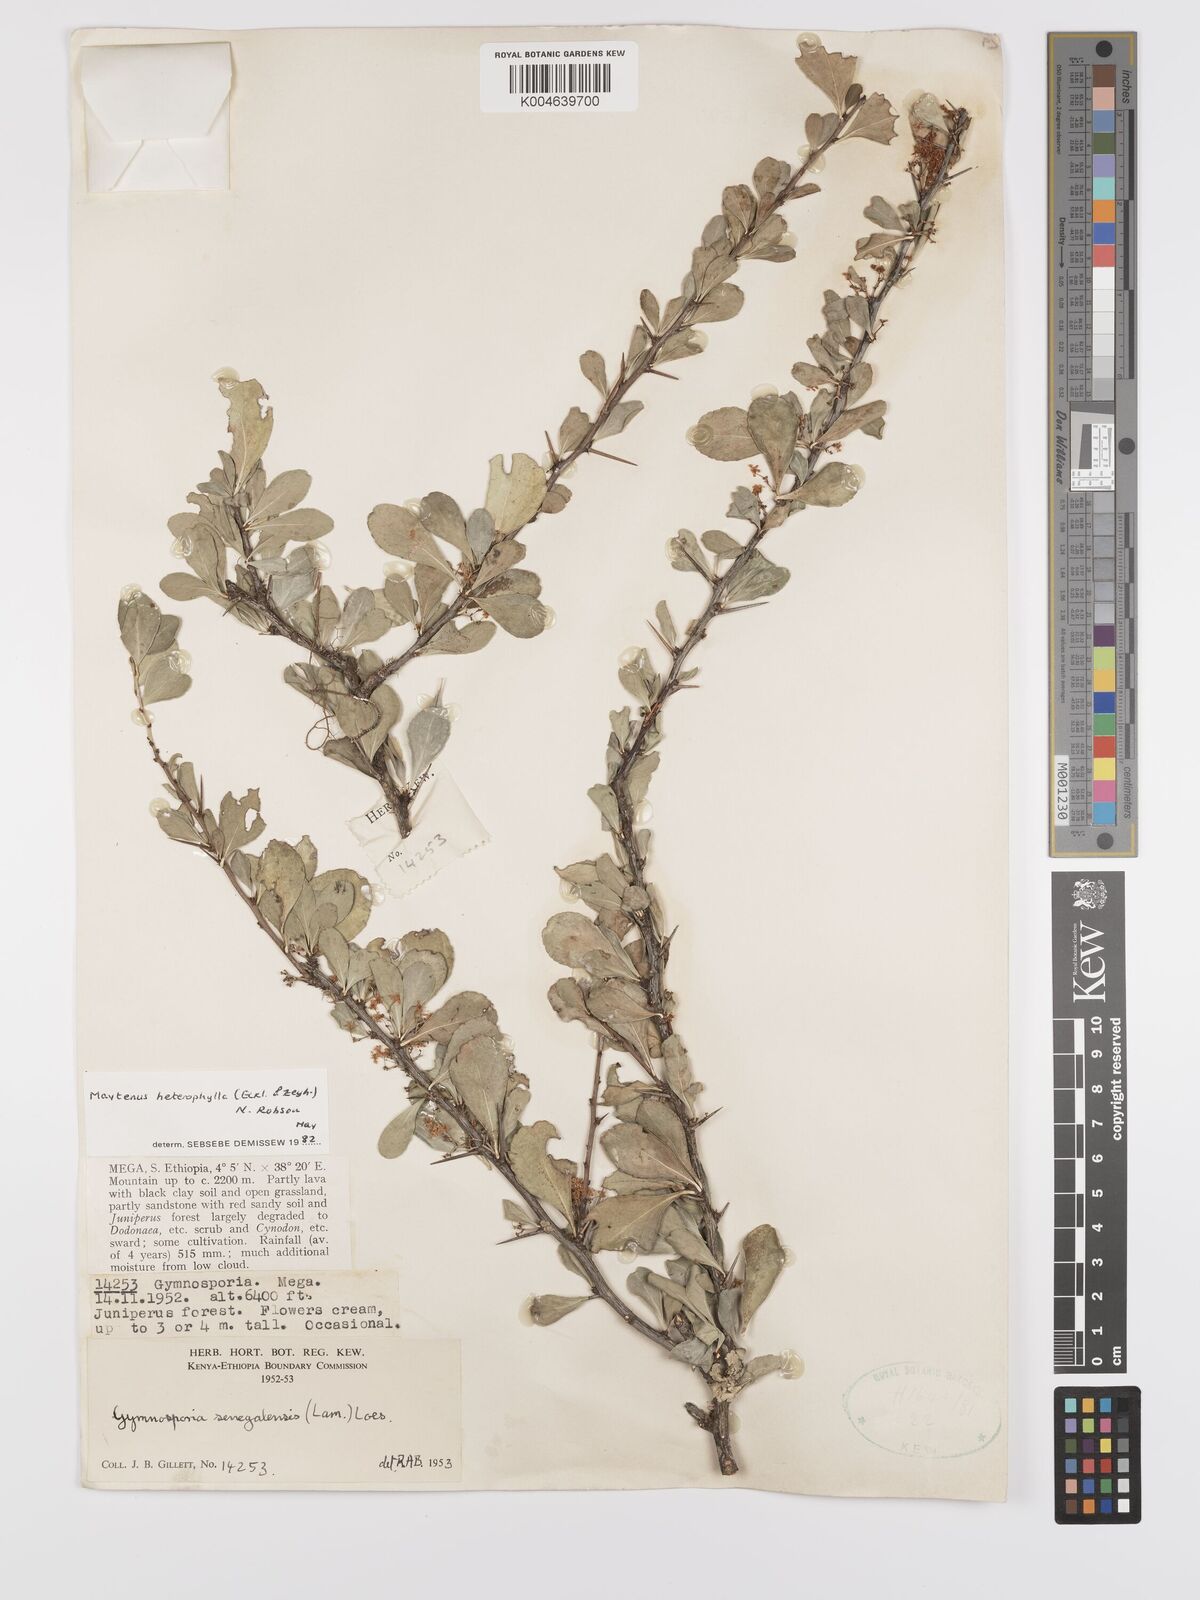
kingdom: Plantae
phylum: Tracheophyta
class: Magnoliopsida
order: Celastrales
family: Celastraceae
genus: Gymnosporia
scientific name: Gymnosporia heterophylla
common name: Angle-stem spikethorn
